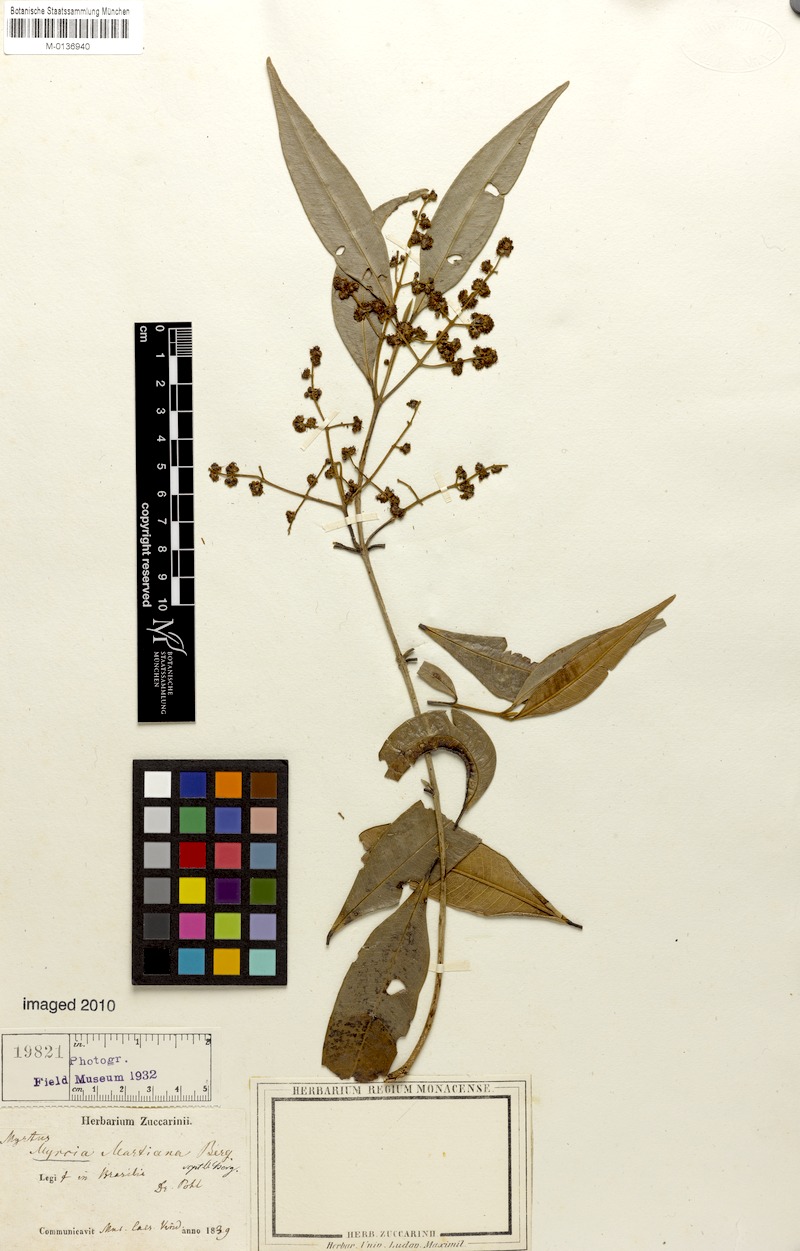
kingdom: Plantae
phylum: Tracheophyta
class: Magnoliopsida
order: Myrtales
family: Myrtaceae
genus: Myrcia
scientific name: Myrcia splendens
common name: Surinam cherry
